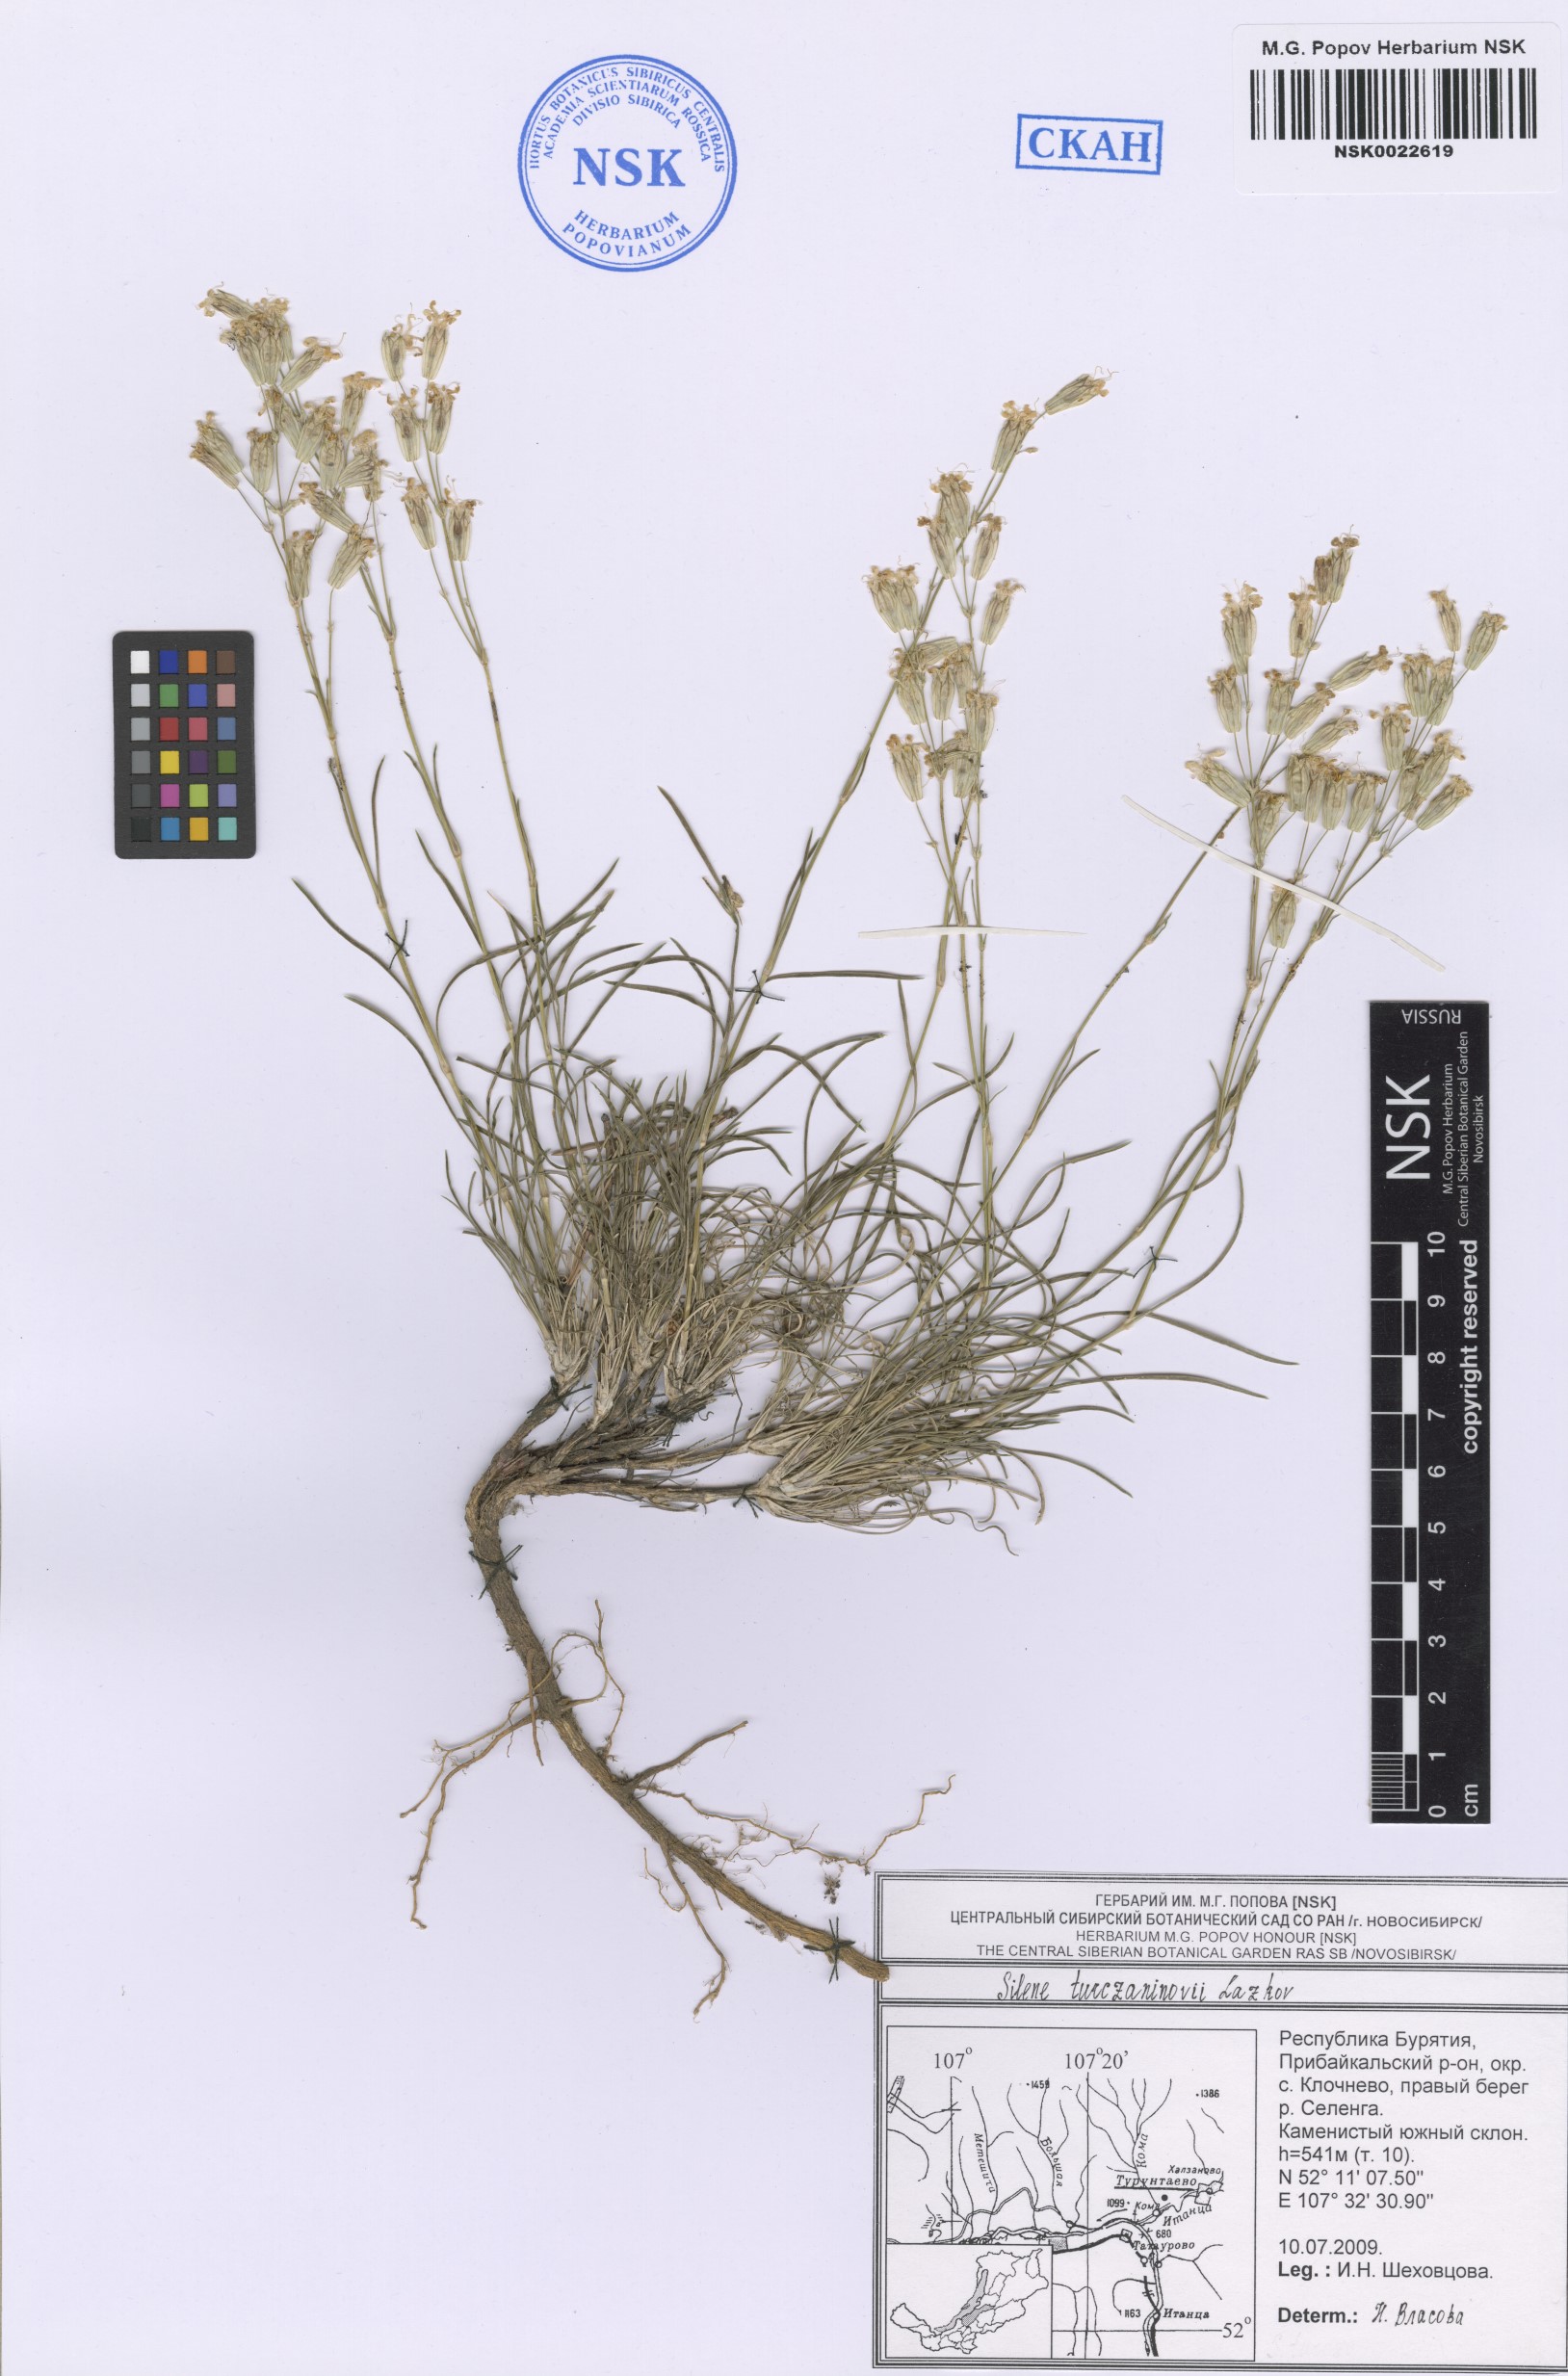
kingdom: Plantae
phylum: Tracheophyta
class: Magnoliopsida
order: Caryophyllales
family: Caryophyllaceae
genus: Silene
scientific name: Silene turczaninovii
